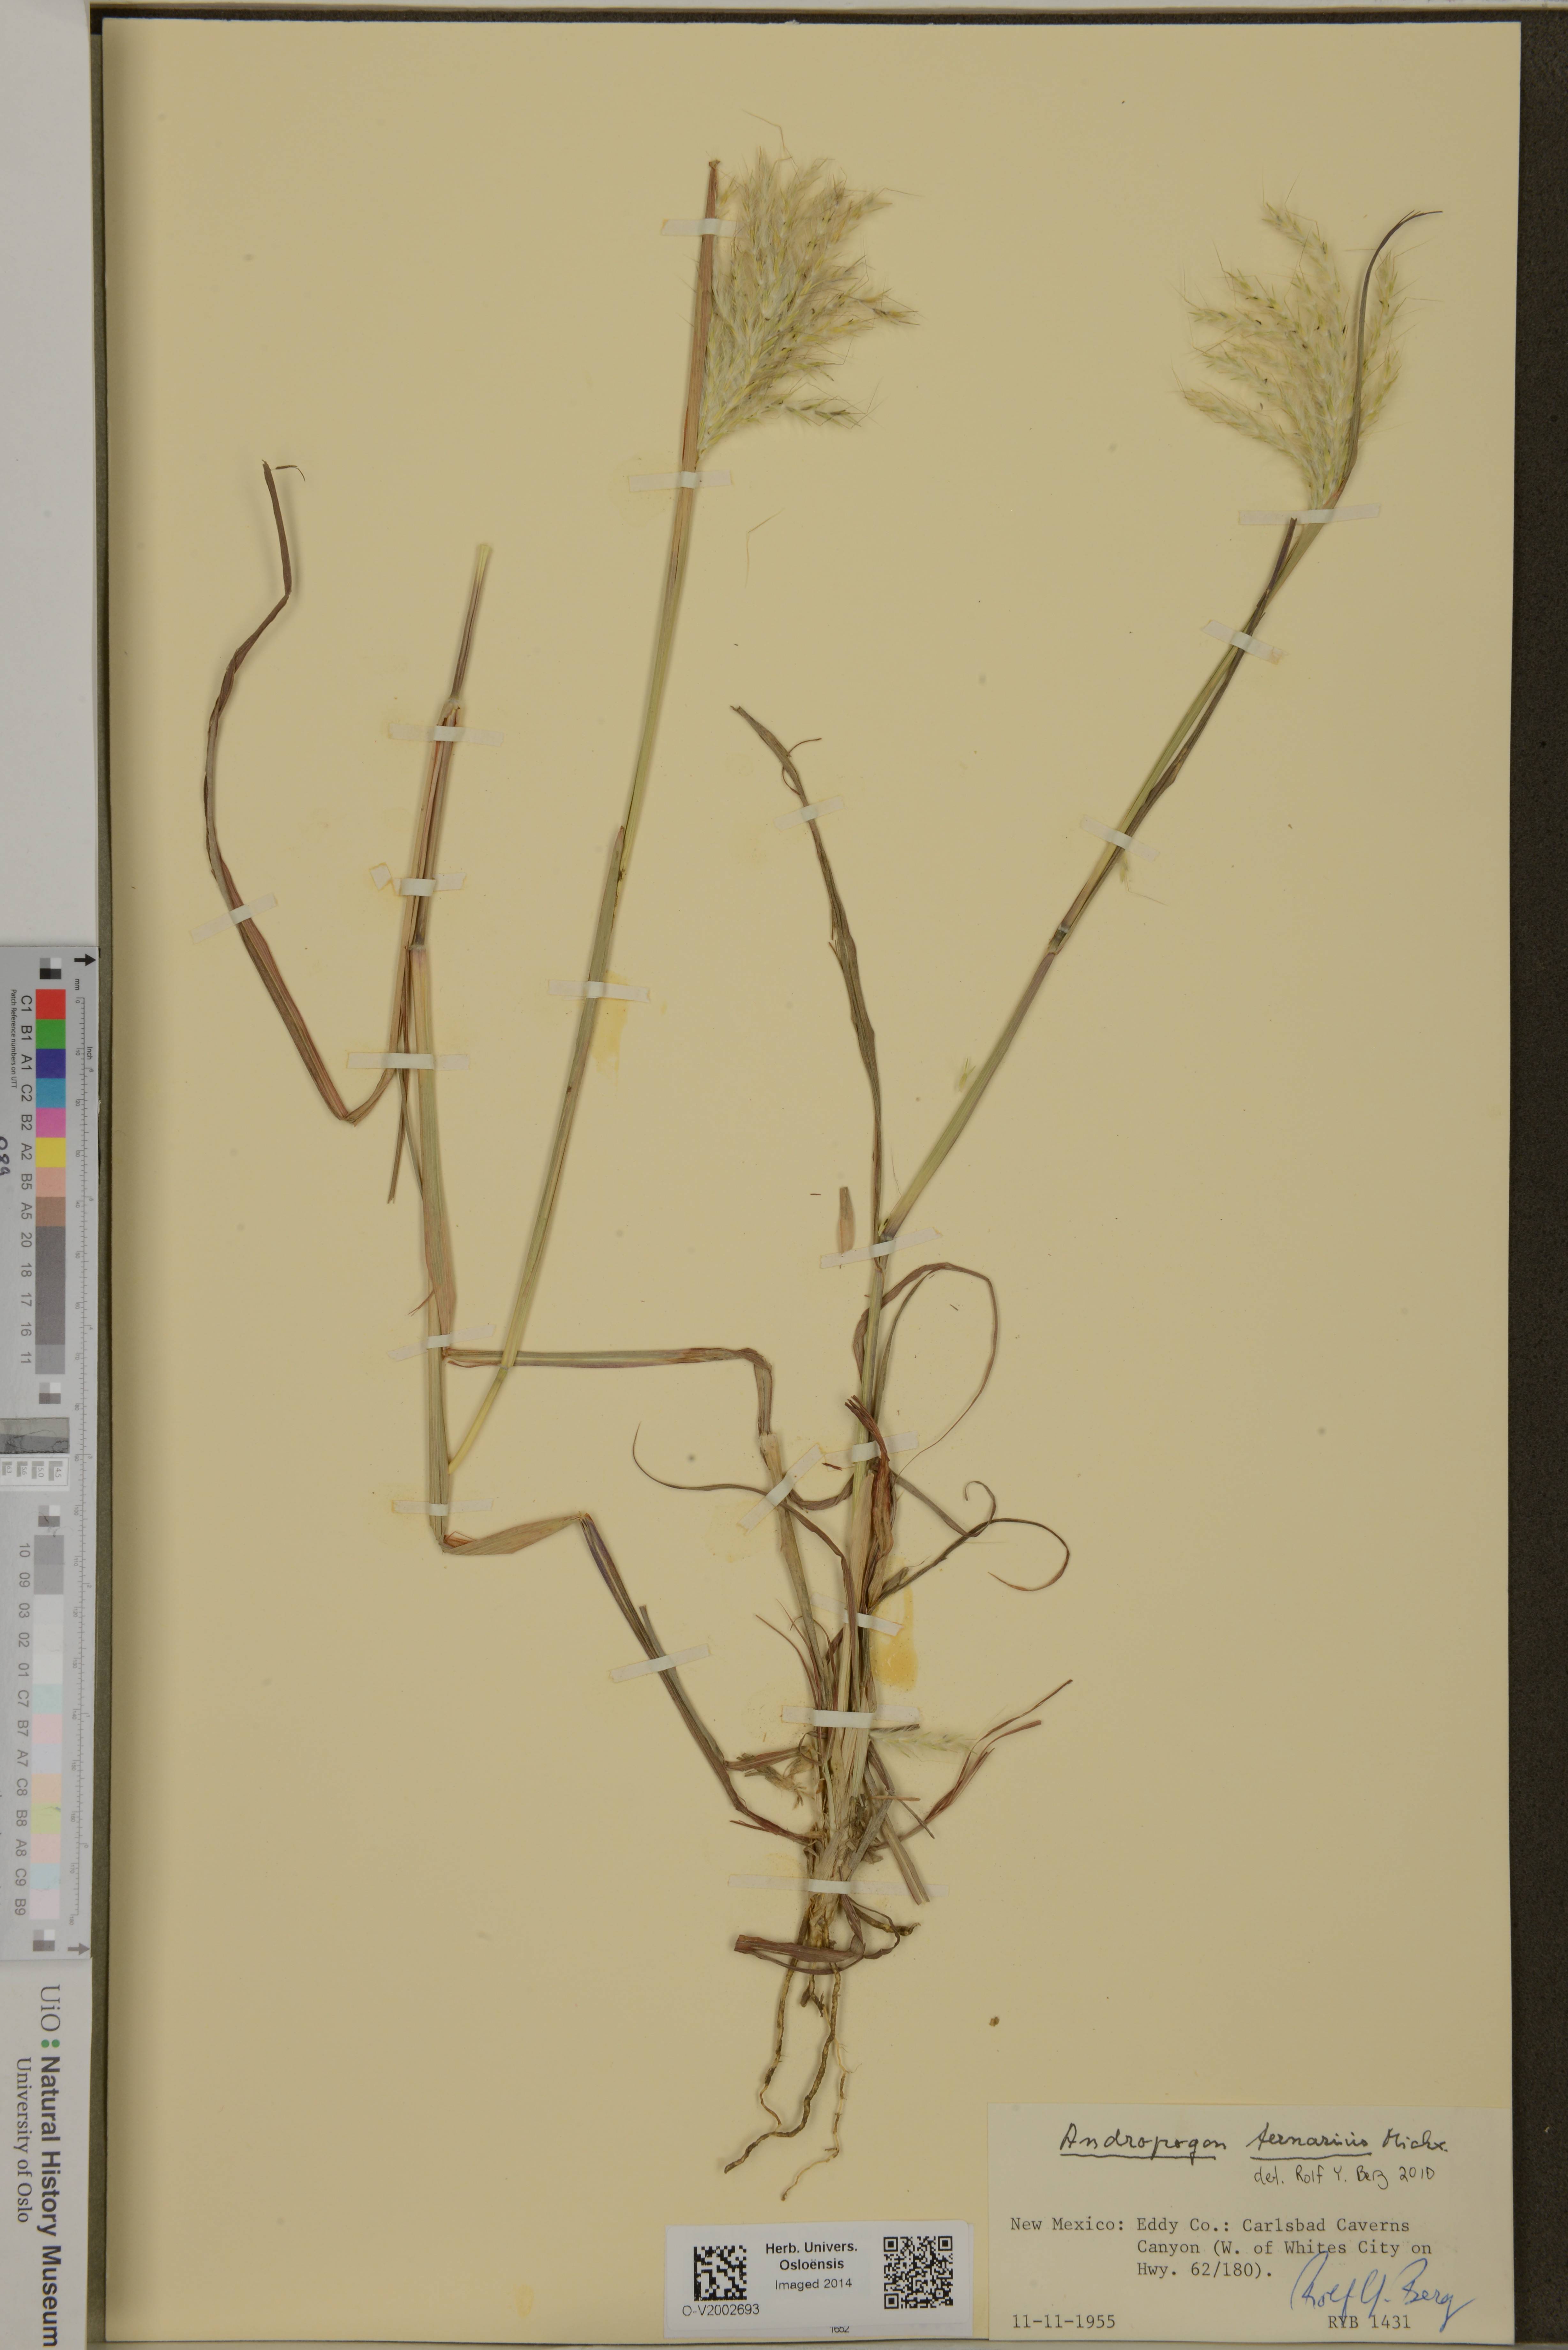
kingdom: Plantae
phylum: Tracheophyta
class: Liliopsida
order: Poales
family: Poaceae
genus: Andropogon
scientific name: Andropogon ternarius
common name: Split bluestem
